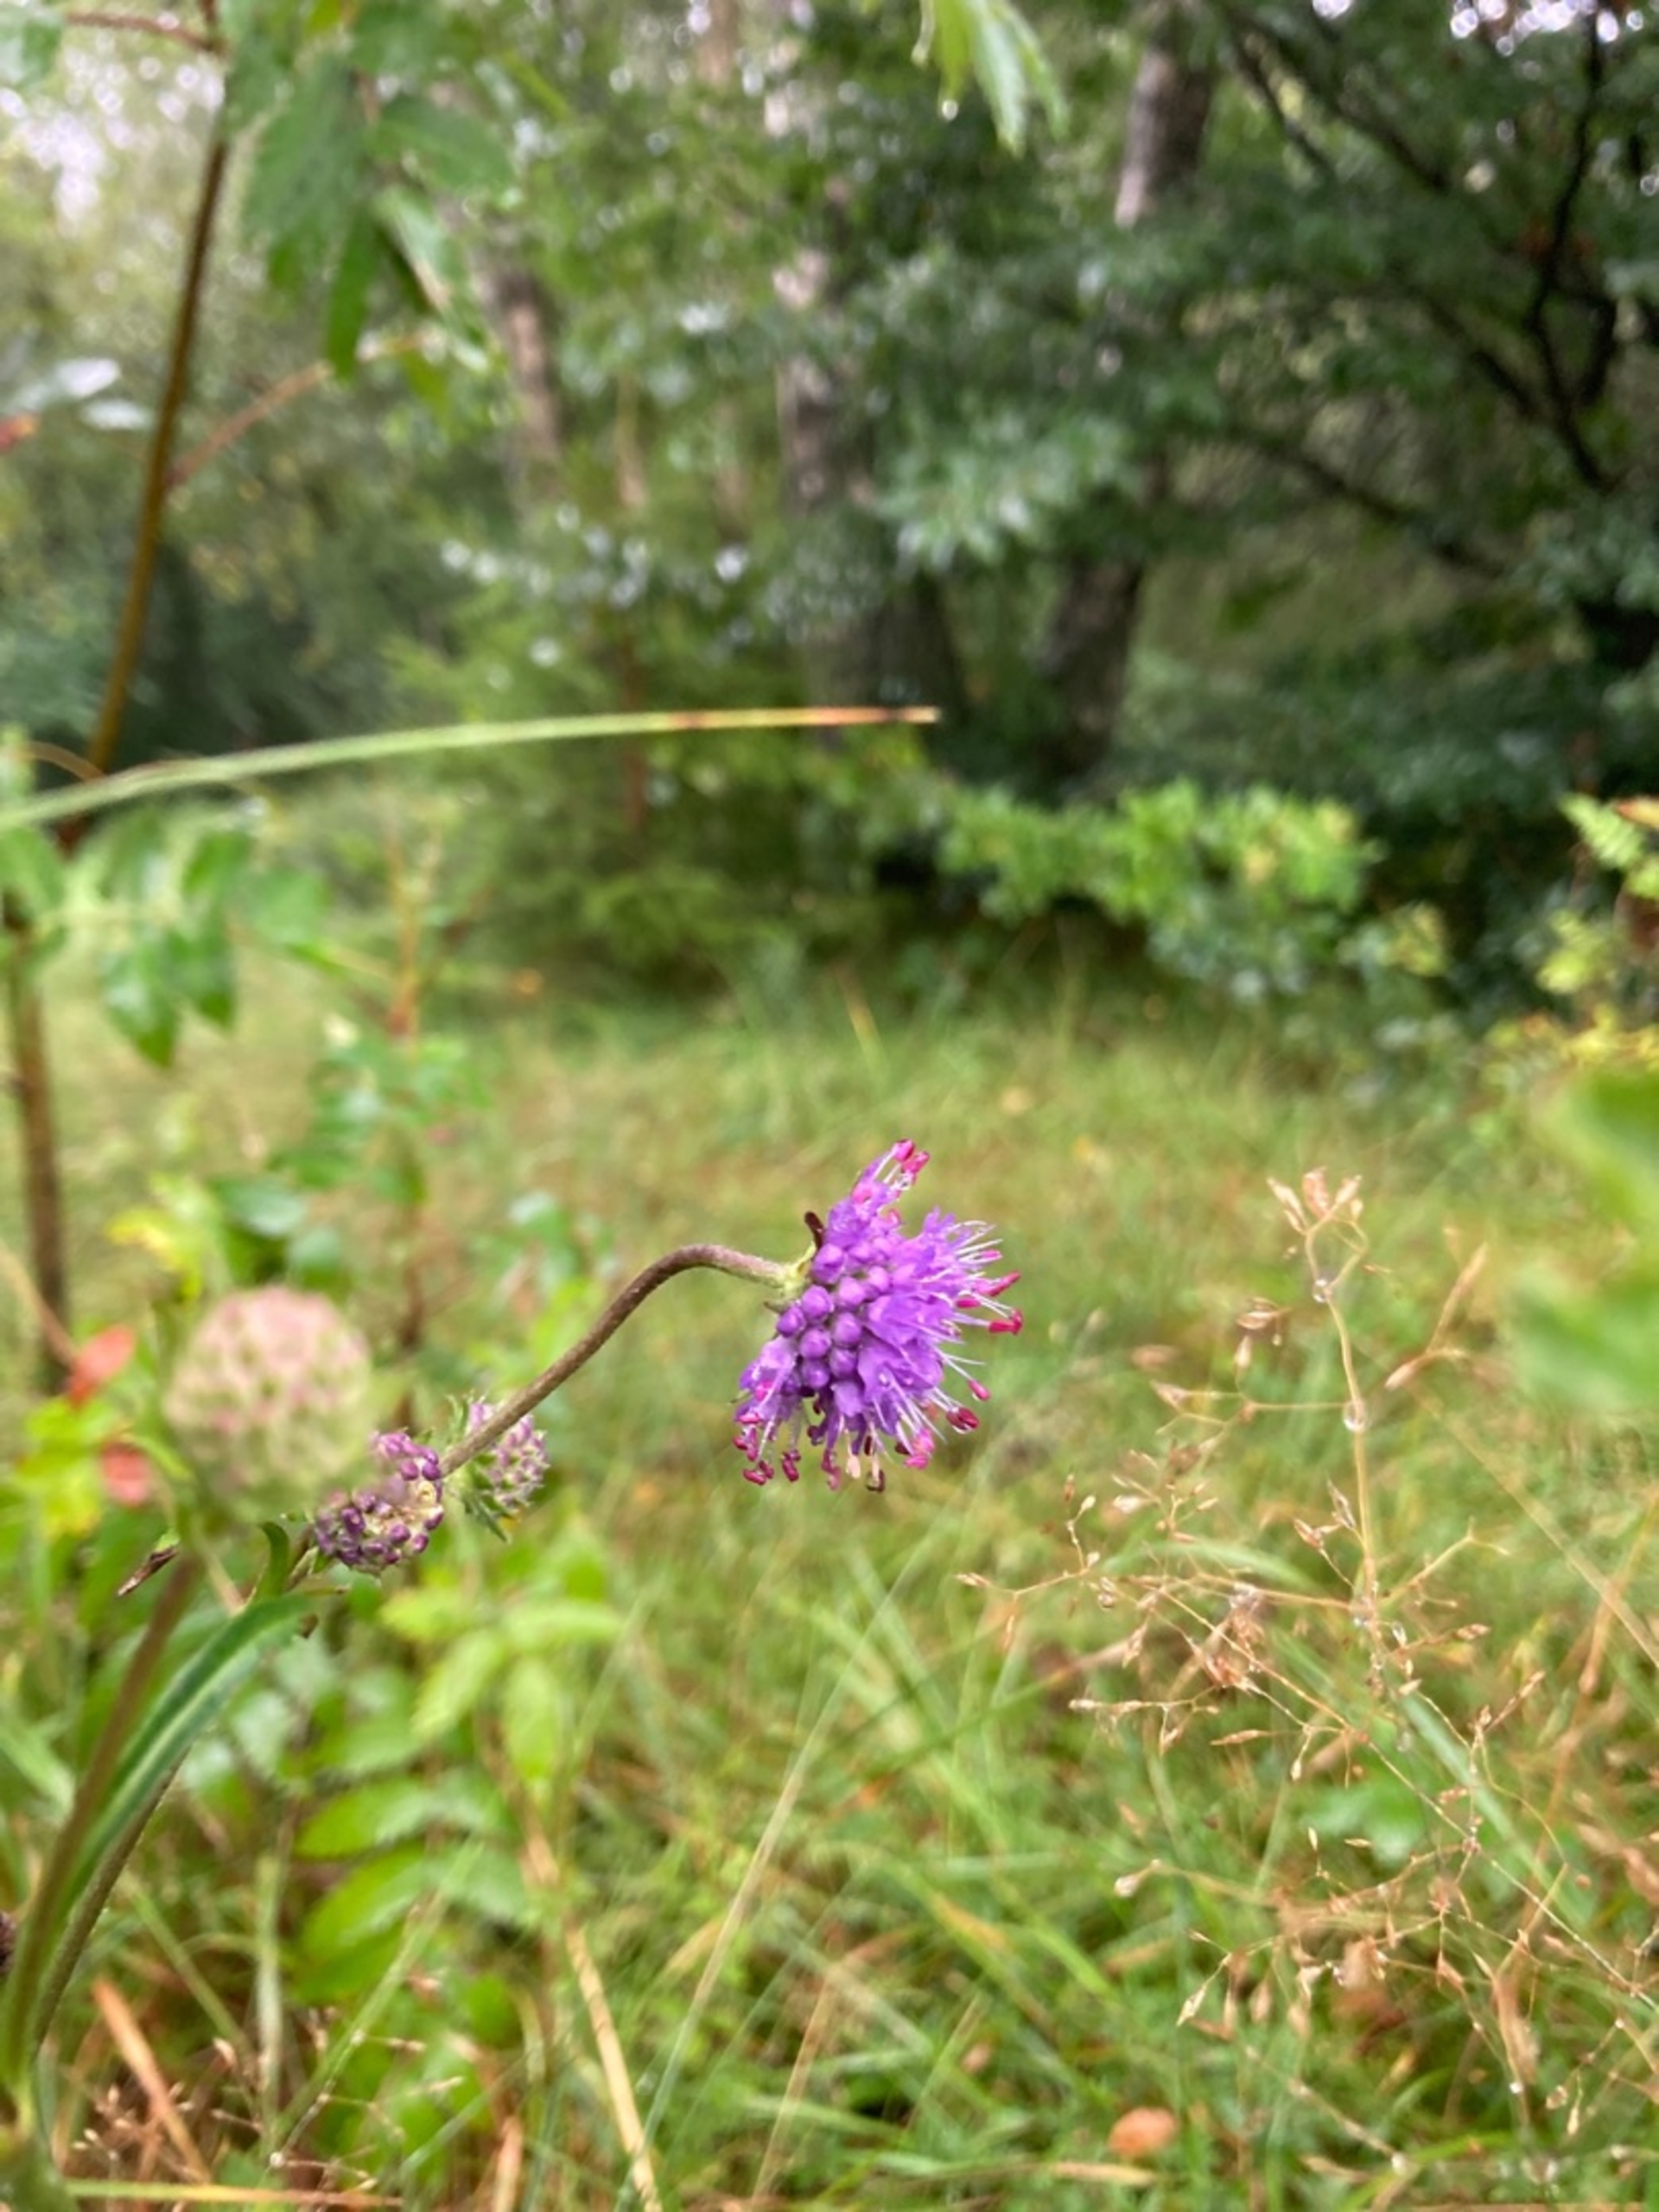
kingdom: Plantae
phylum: Tracheophyta
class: Magnoliopsida
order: Dipsacales
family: Caprifoliaceae
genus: Succisa
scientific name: Succisa pratensis
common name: Djævelsbid
